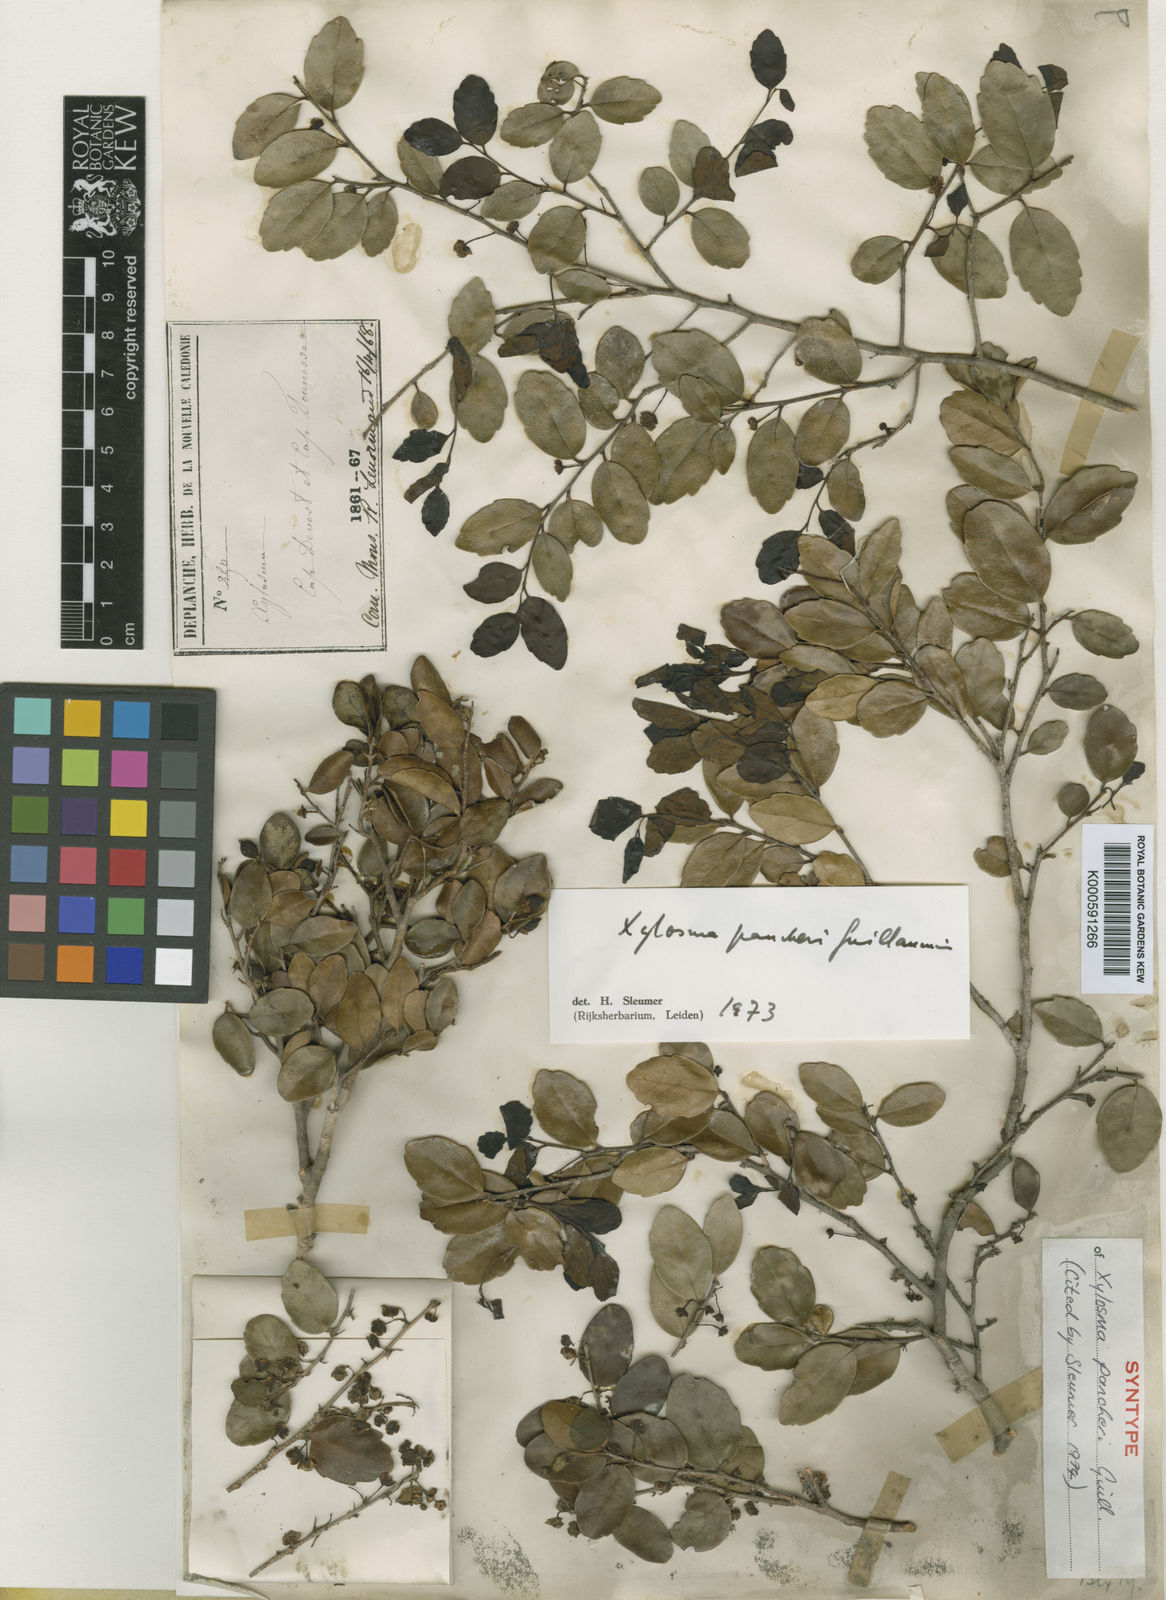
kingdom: Plantae
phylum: Tracheophyta
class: Magnoliopsida
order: Malpighiales
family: Salicaceae
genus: Xylosma
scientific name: Xylosma pancheri
